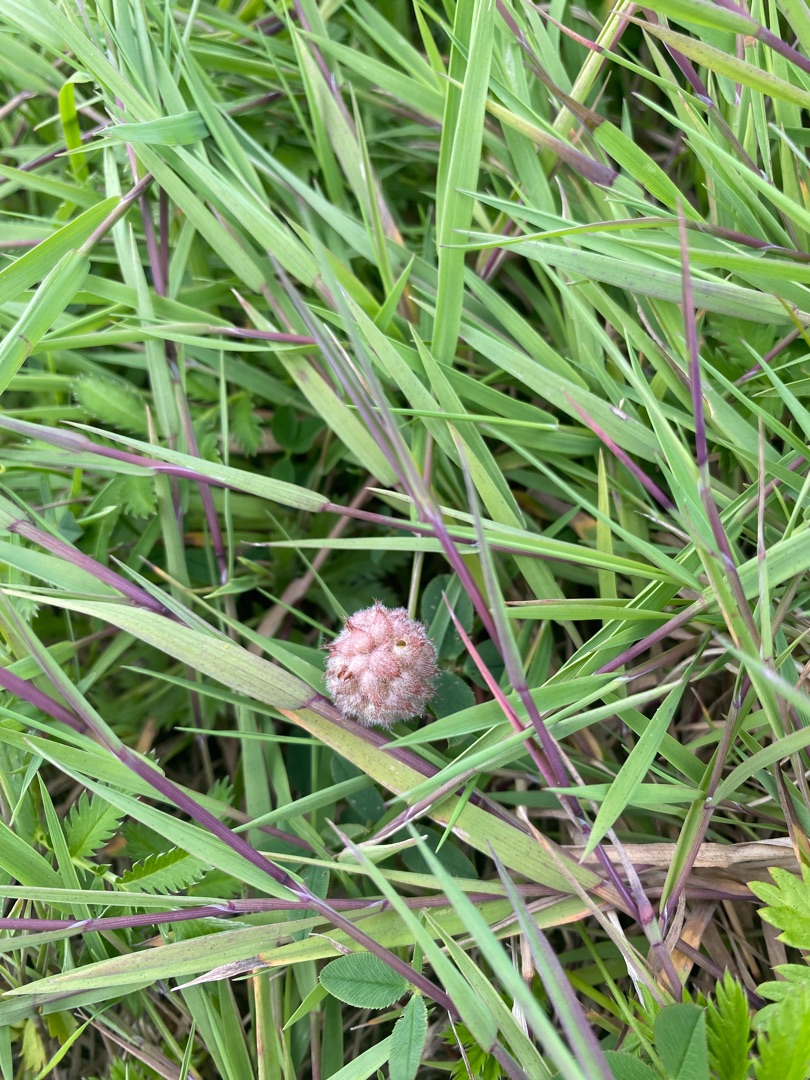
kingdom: Plantae
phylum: Tracheophyta
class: Magnoliopsida
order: Fabales
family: Fabaceae
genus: Trifolium
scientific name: Trifolium fragiferum
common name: Jordbær-kløver
